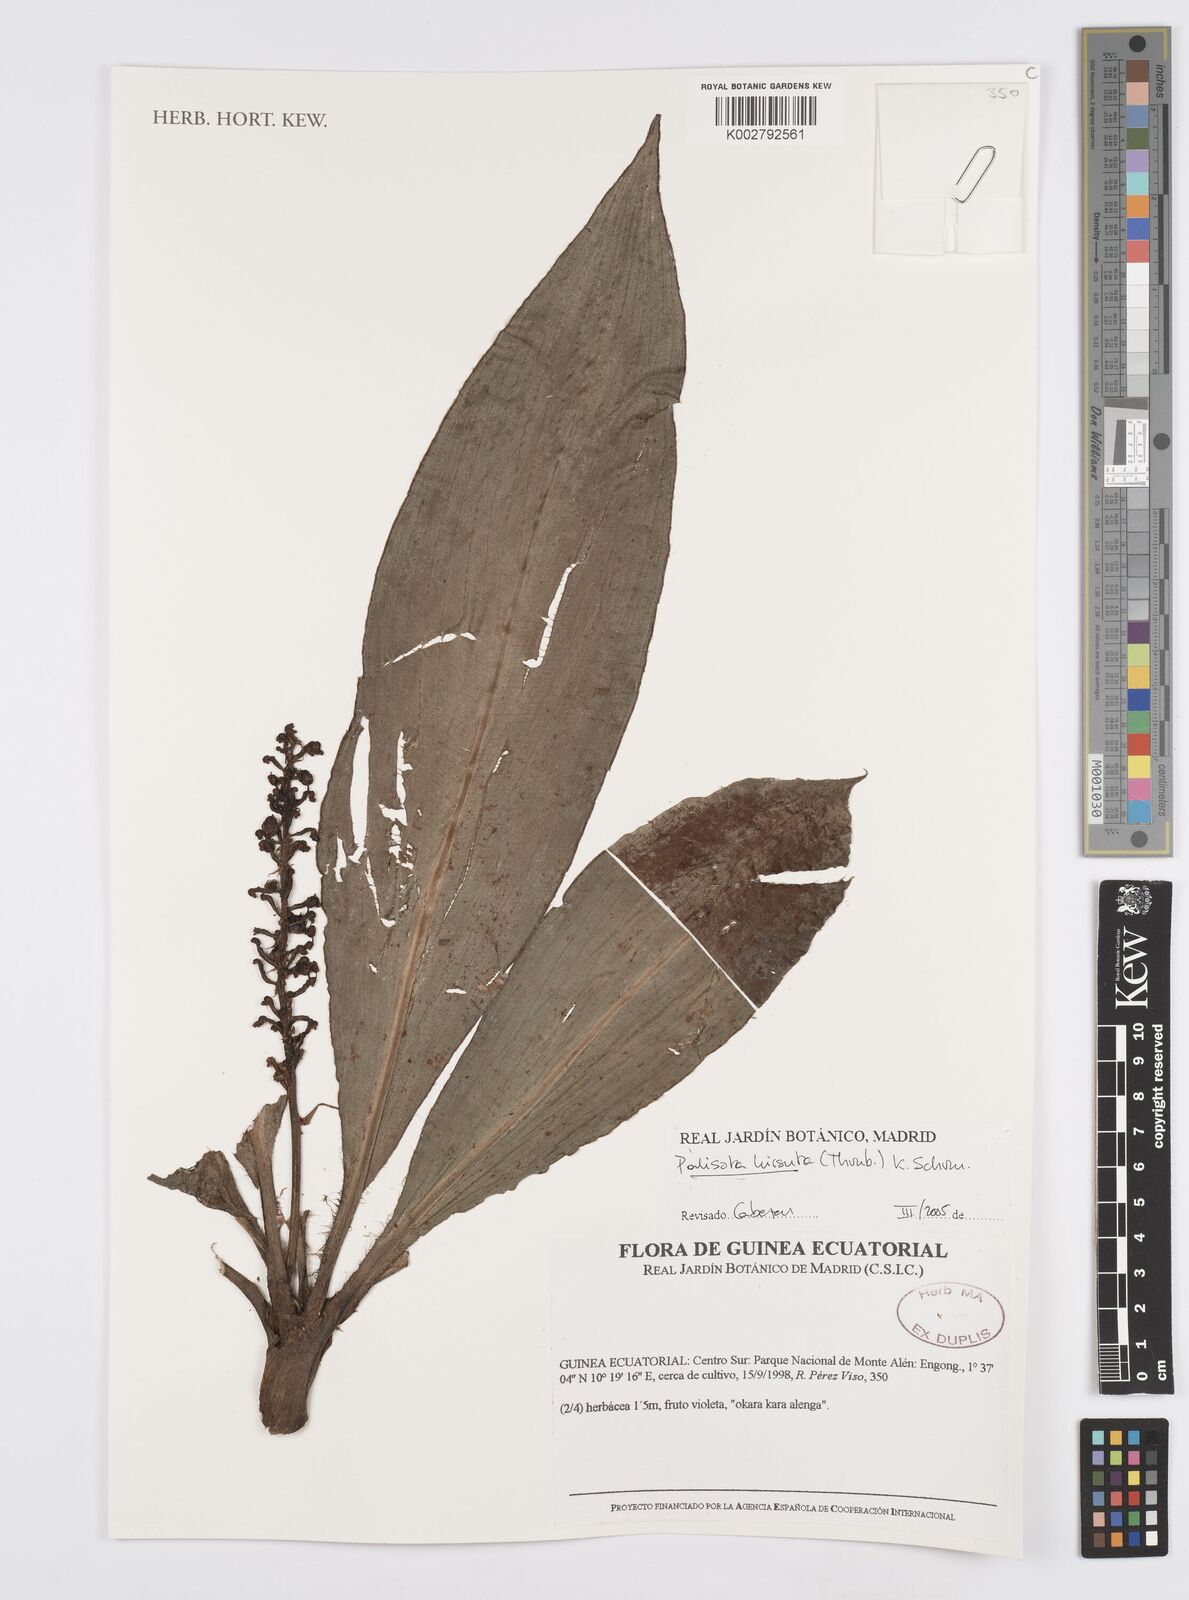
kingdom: Plantae
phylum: Tracheophyta
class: Liliopsida
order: Commelinales
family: Commelinaceae
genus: Palisota
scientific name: Palisota hirsuta
